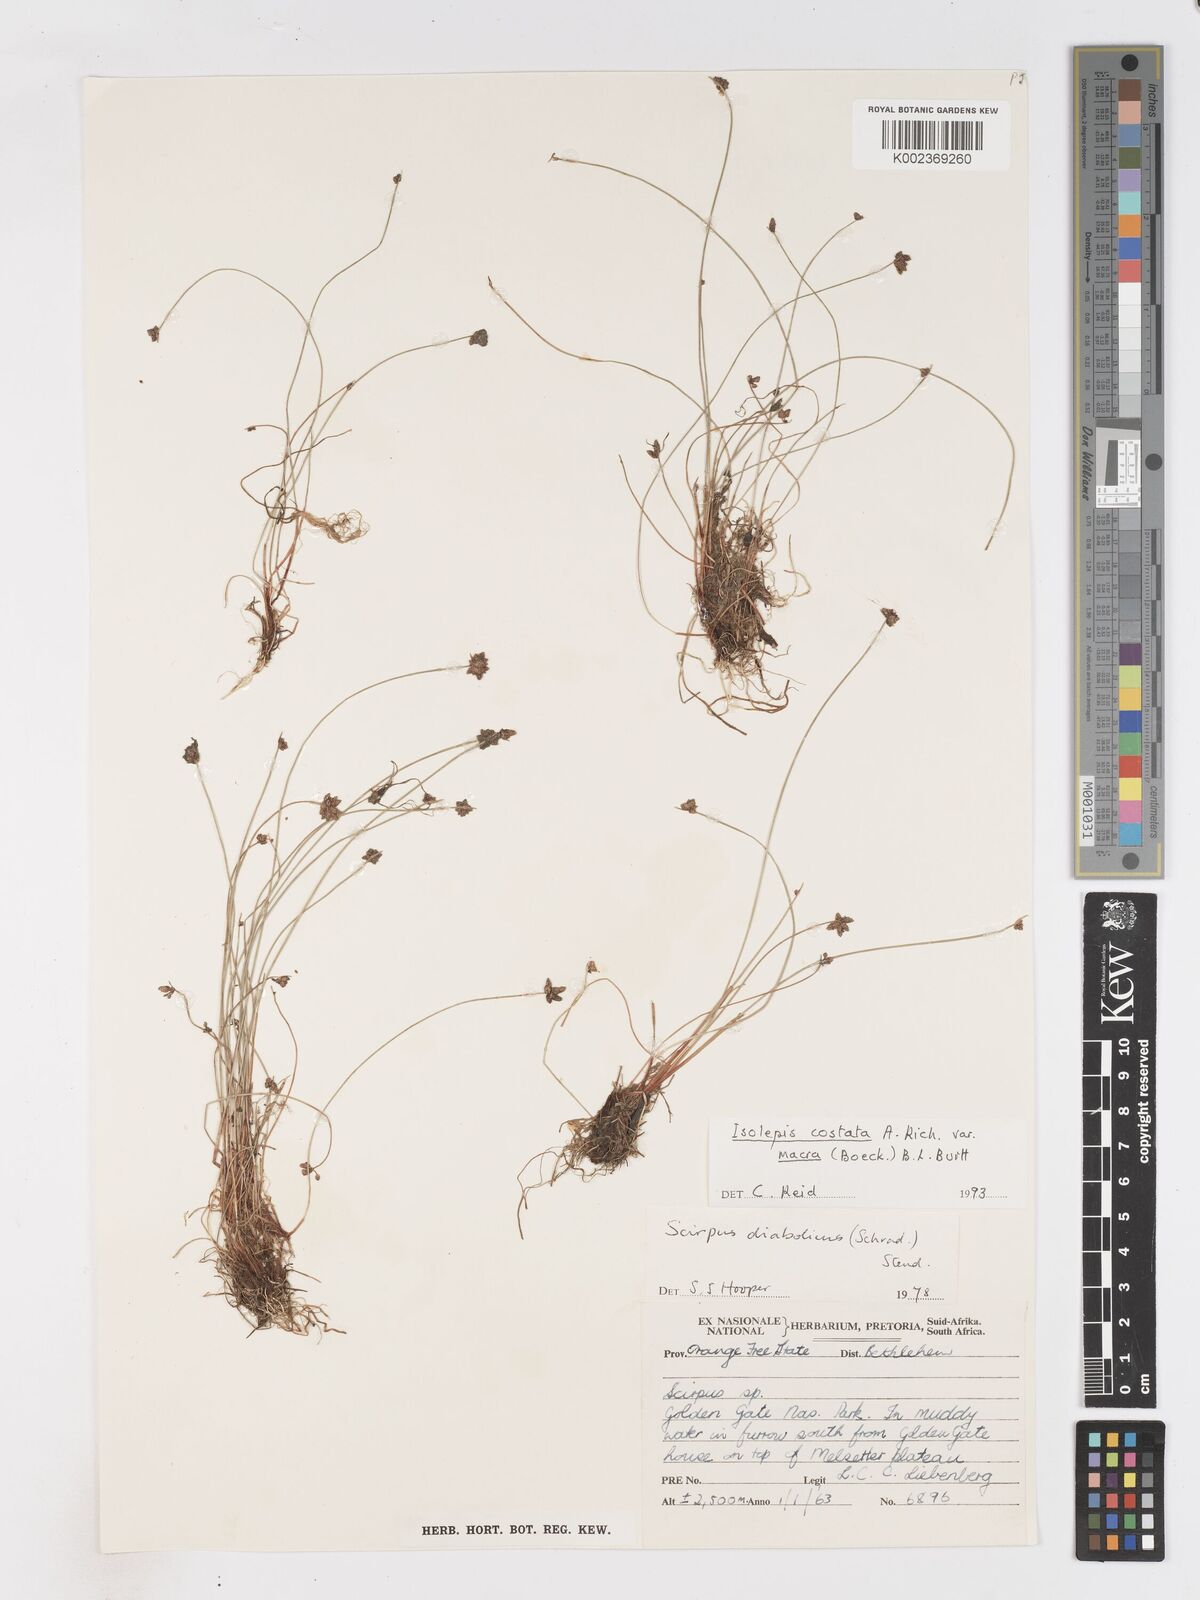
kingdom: Plantae
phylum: Tracheophyta
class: Liliopsida
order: Poales
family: Cyperaceae
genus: Isolepis
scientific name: Isolepis costata
